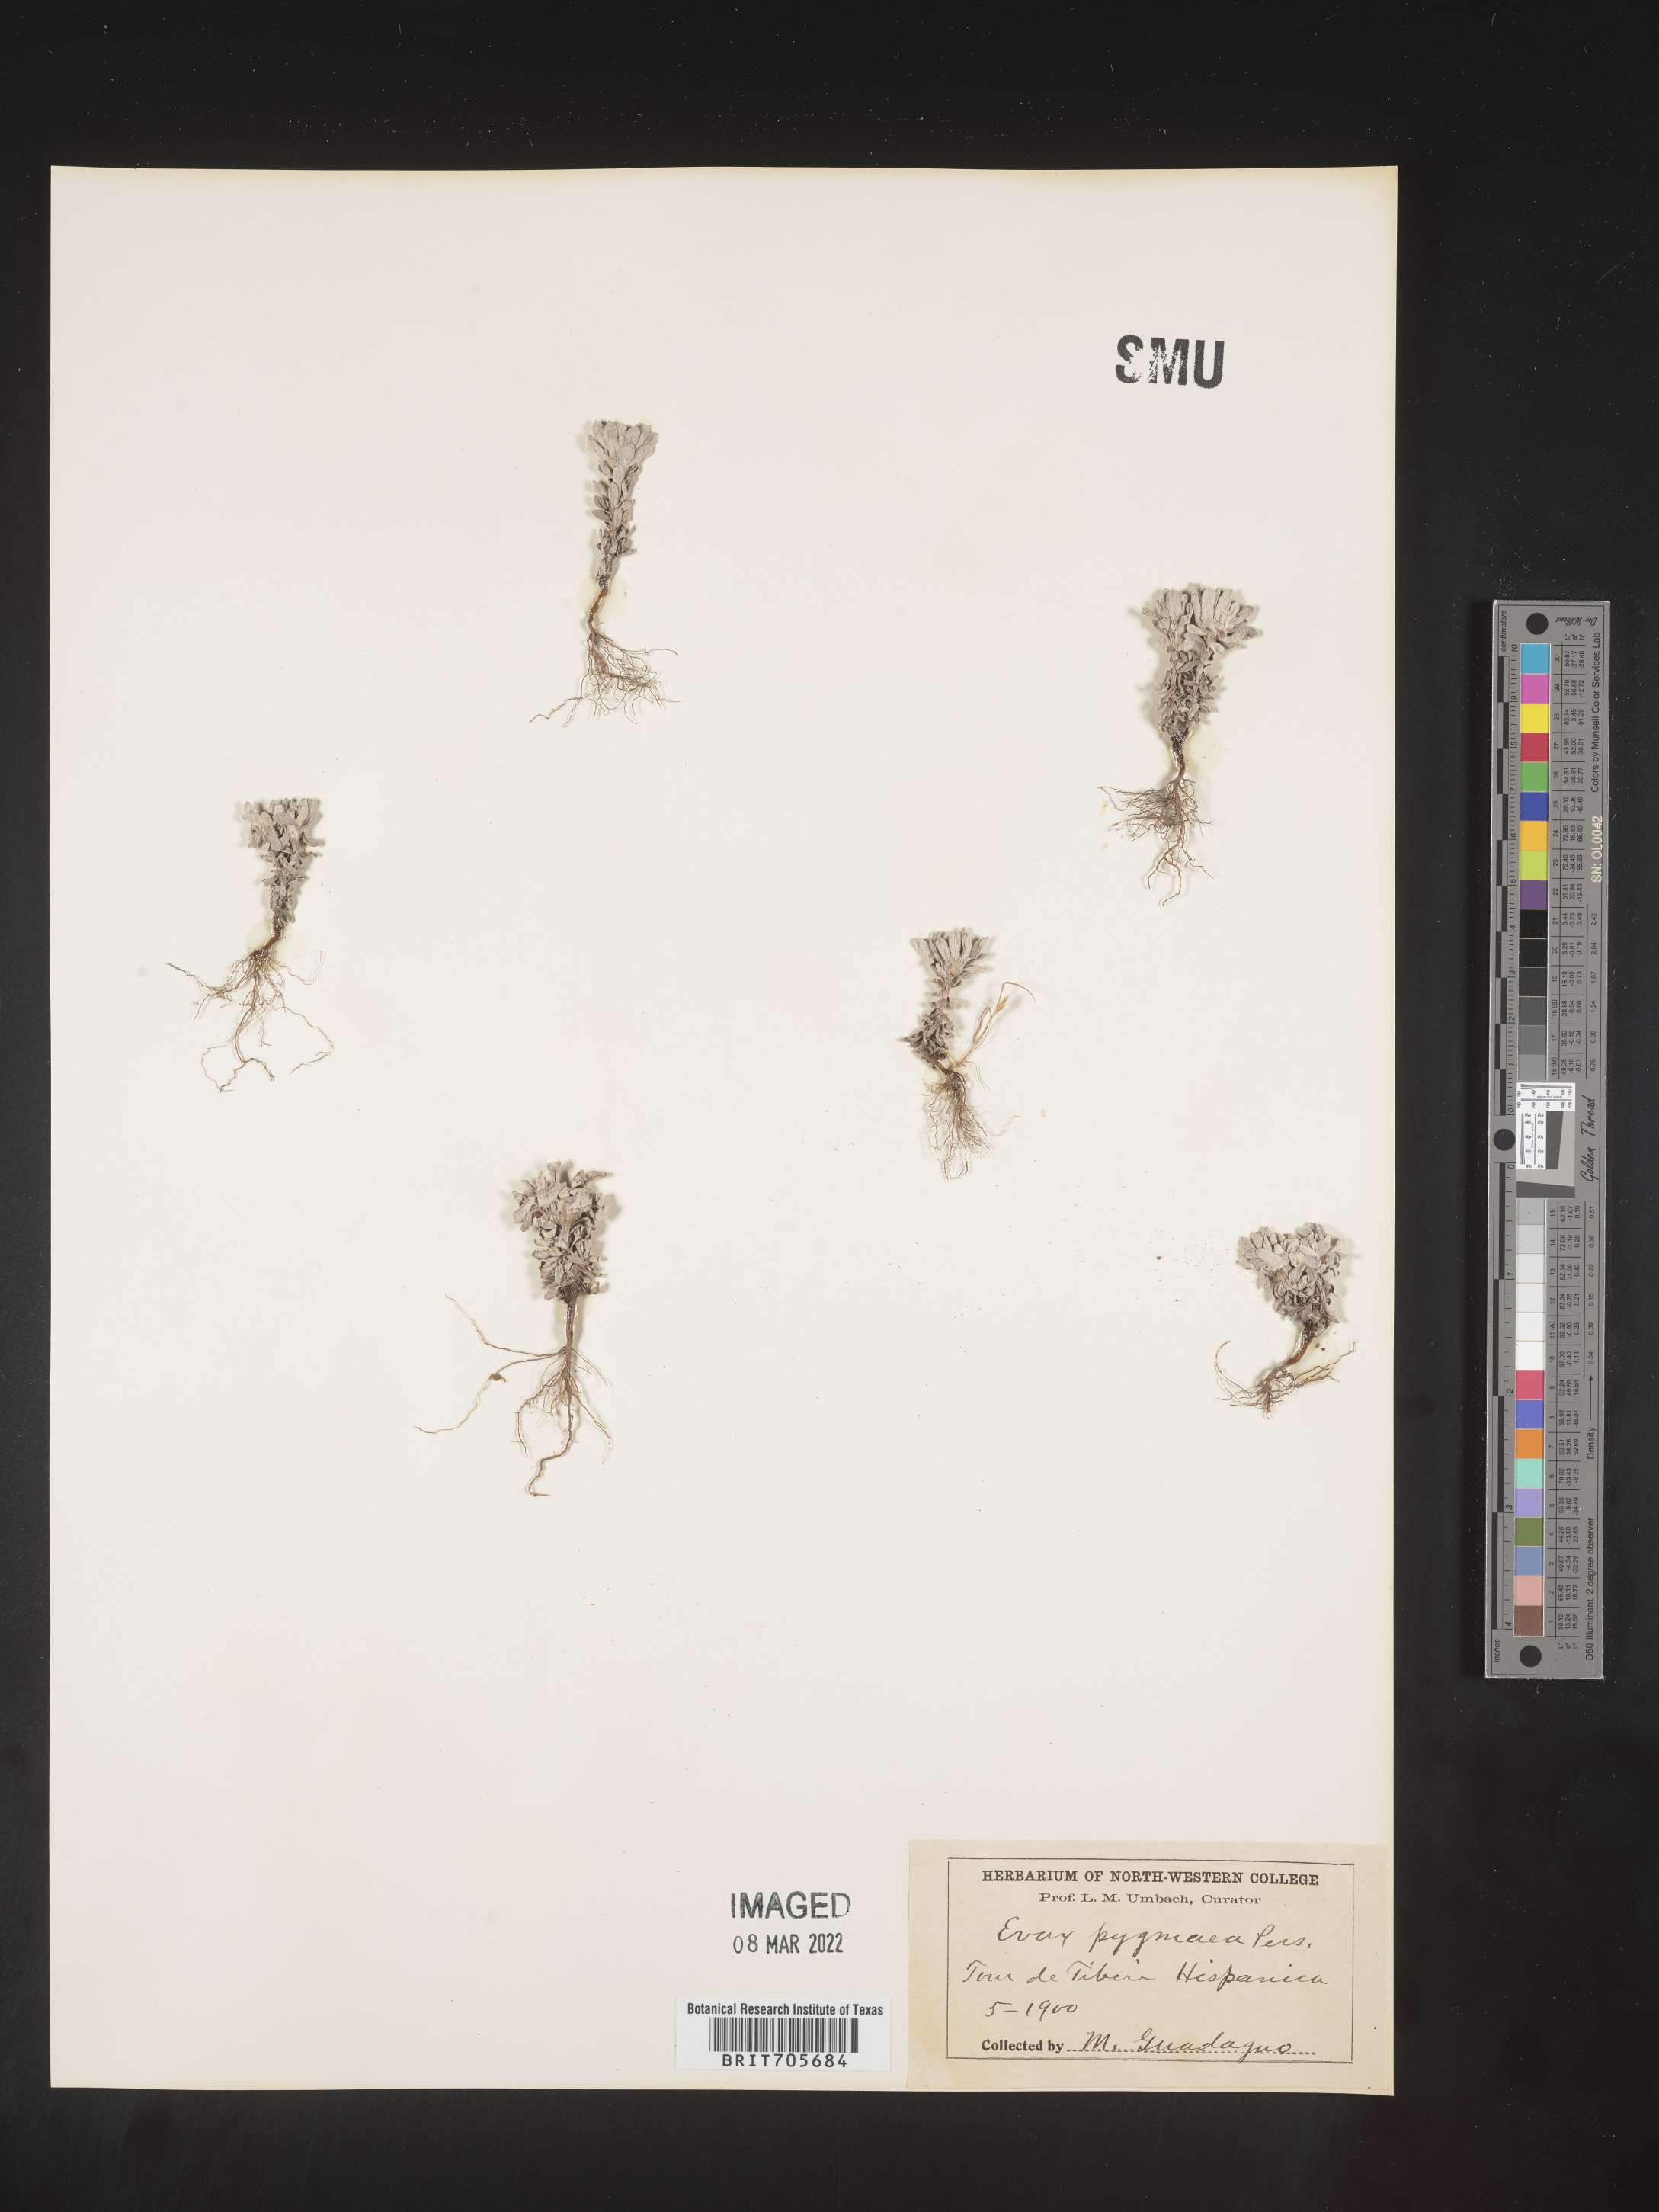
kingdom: Plantae
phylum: Tracheophyta
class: Magnoliopsida
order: Asterales
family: Asteraceae
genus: Filago
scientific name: Filago
